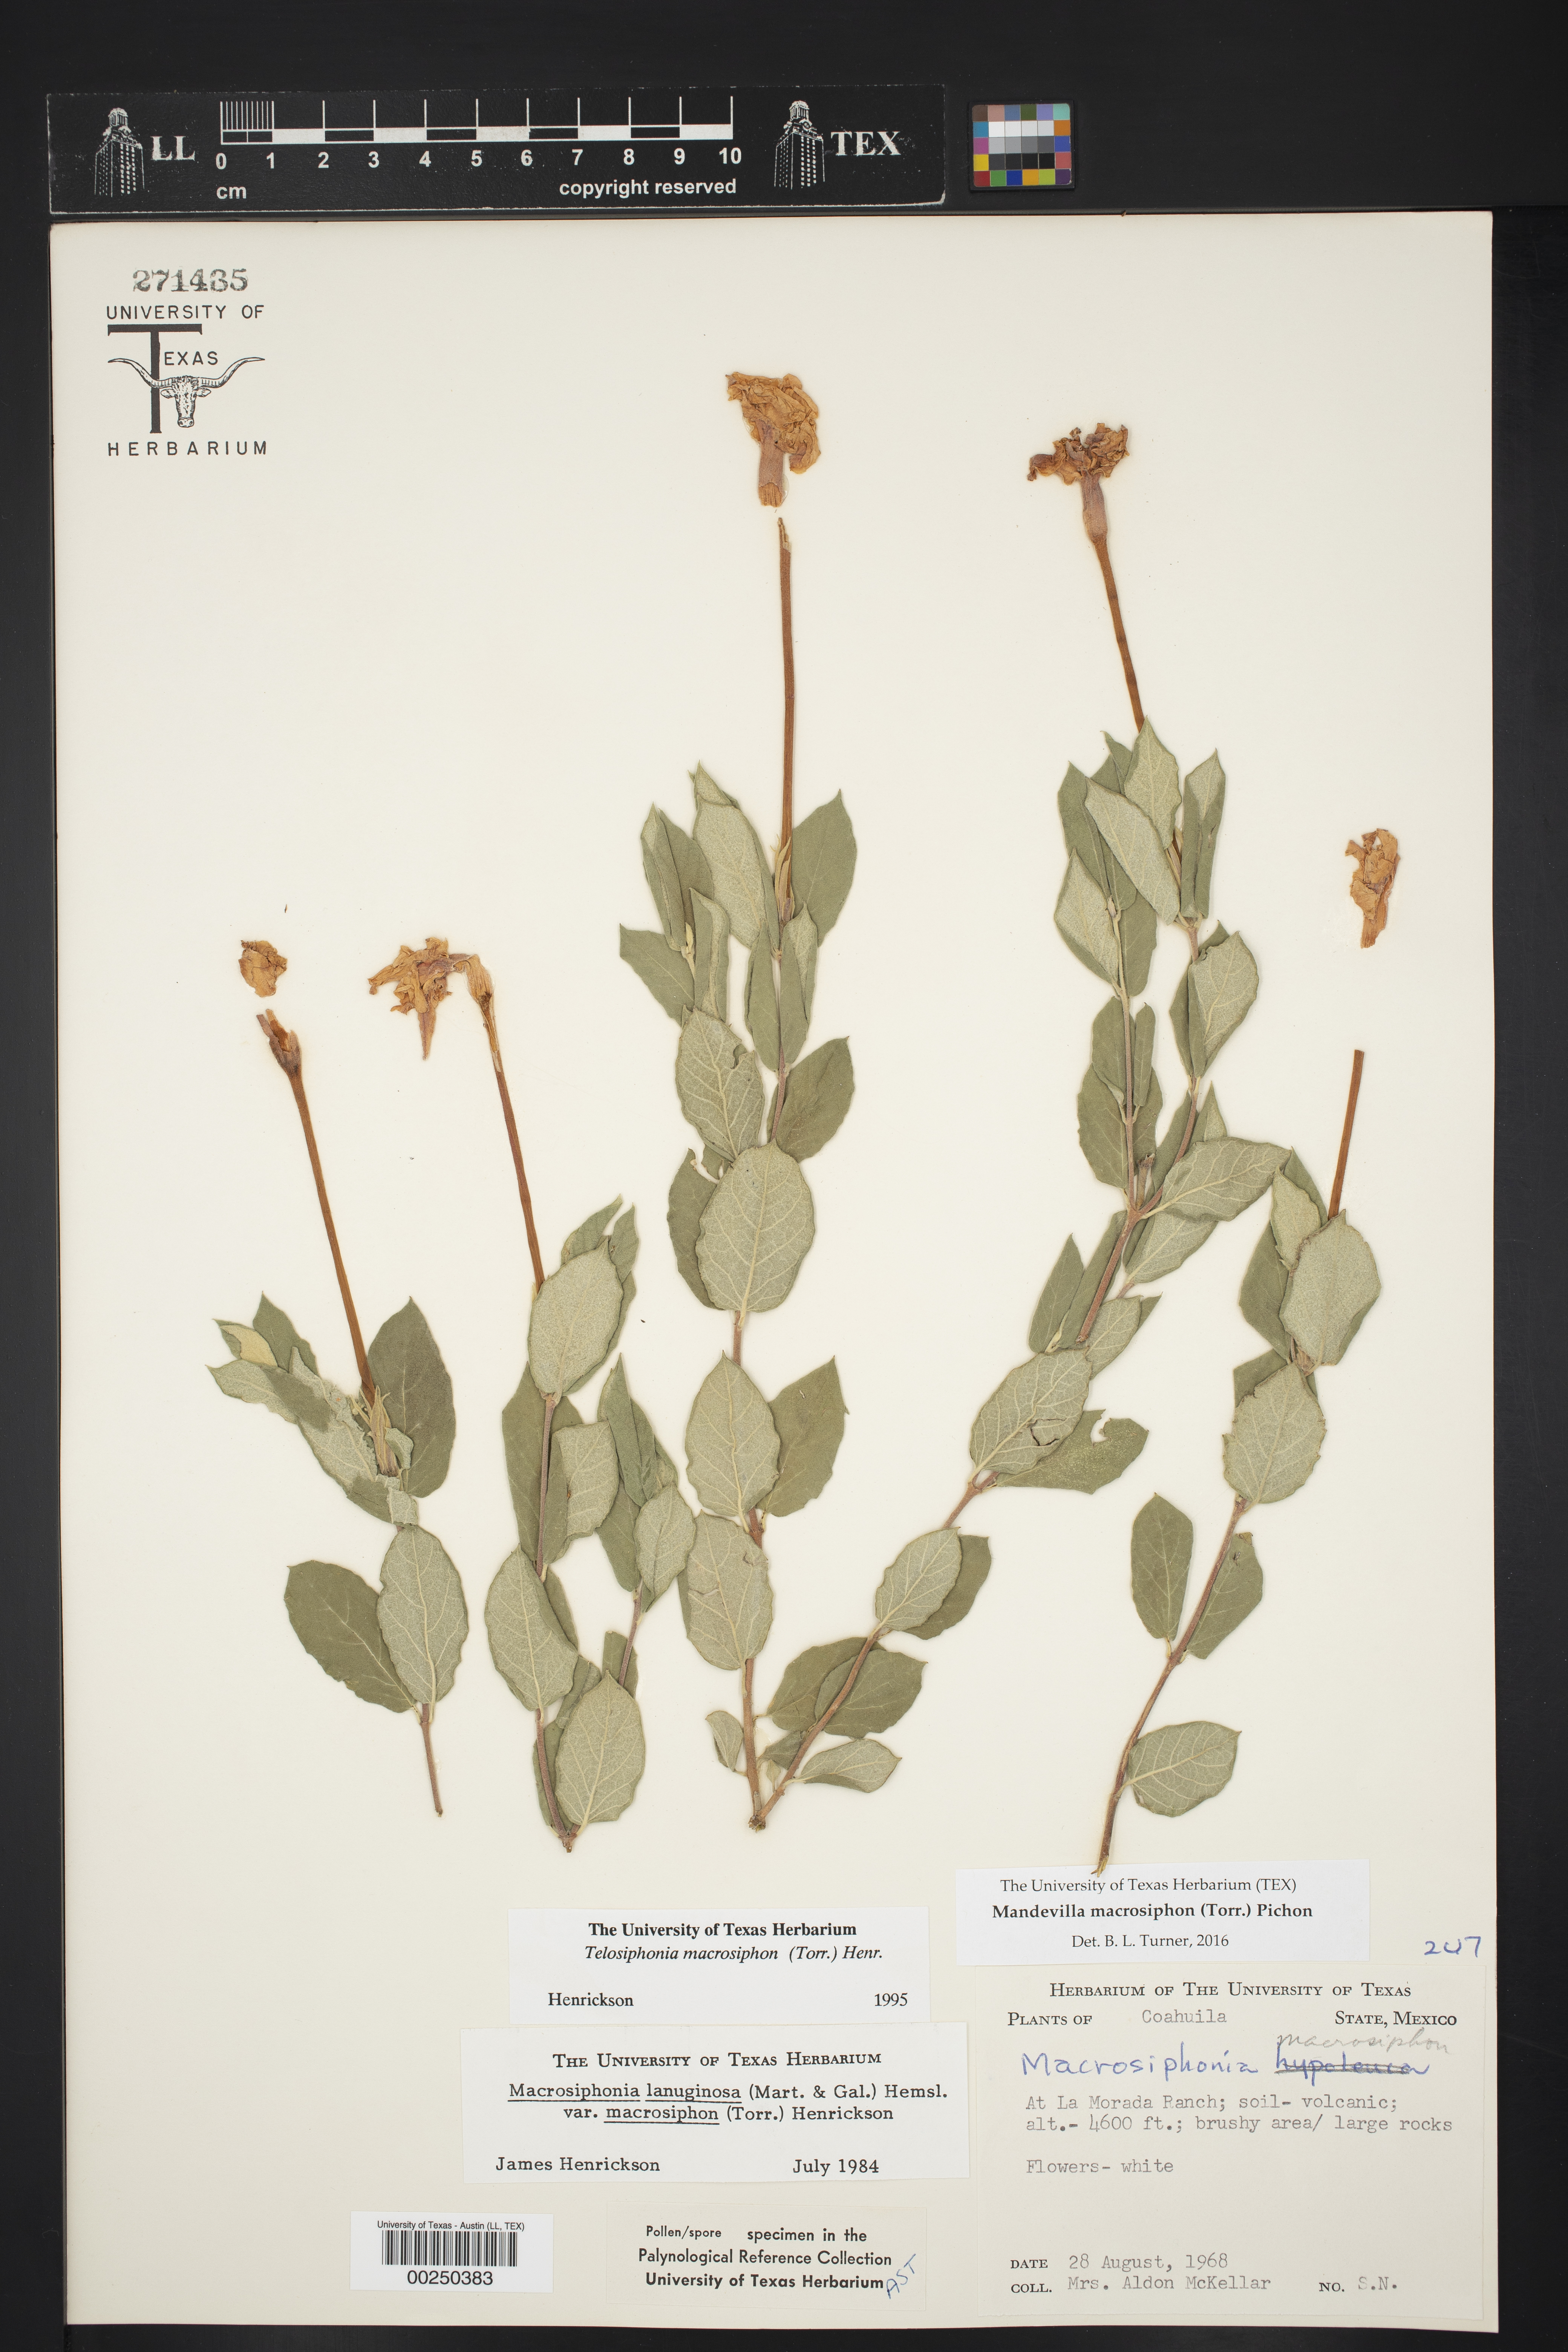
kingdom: Plantae
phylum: Tracheophyta
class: Magnoliopsida
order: Gentianales
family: Apocynaceae
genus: Mandevilla
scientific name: Mandevilla macrosiphon
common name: Plateau rocktrumpet
